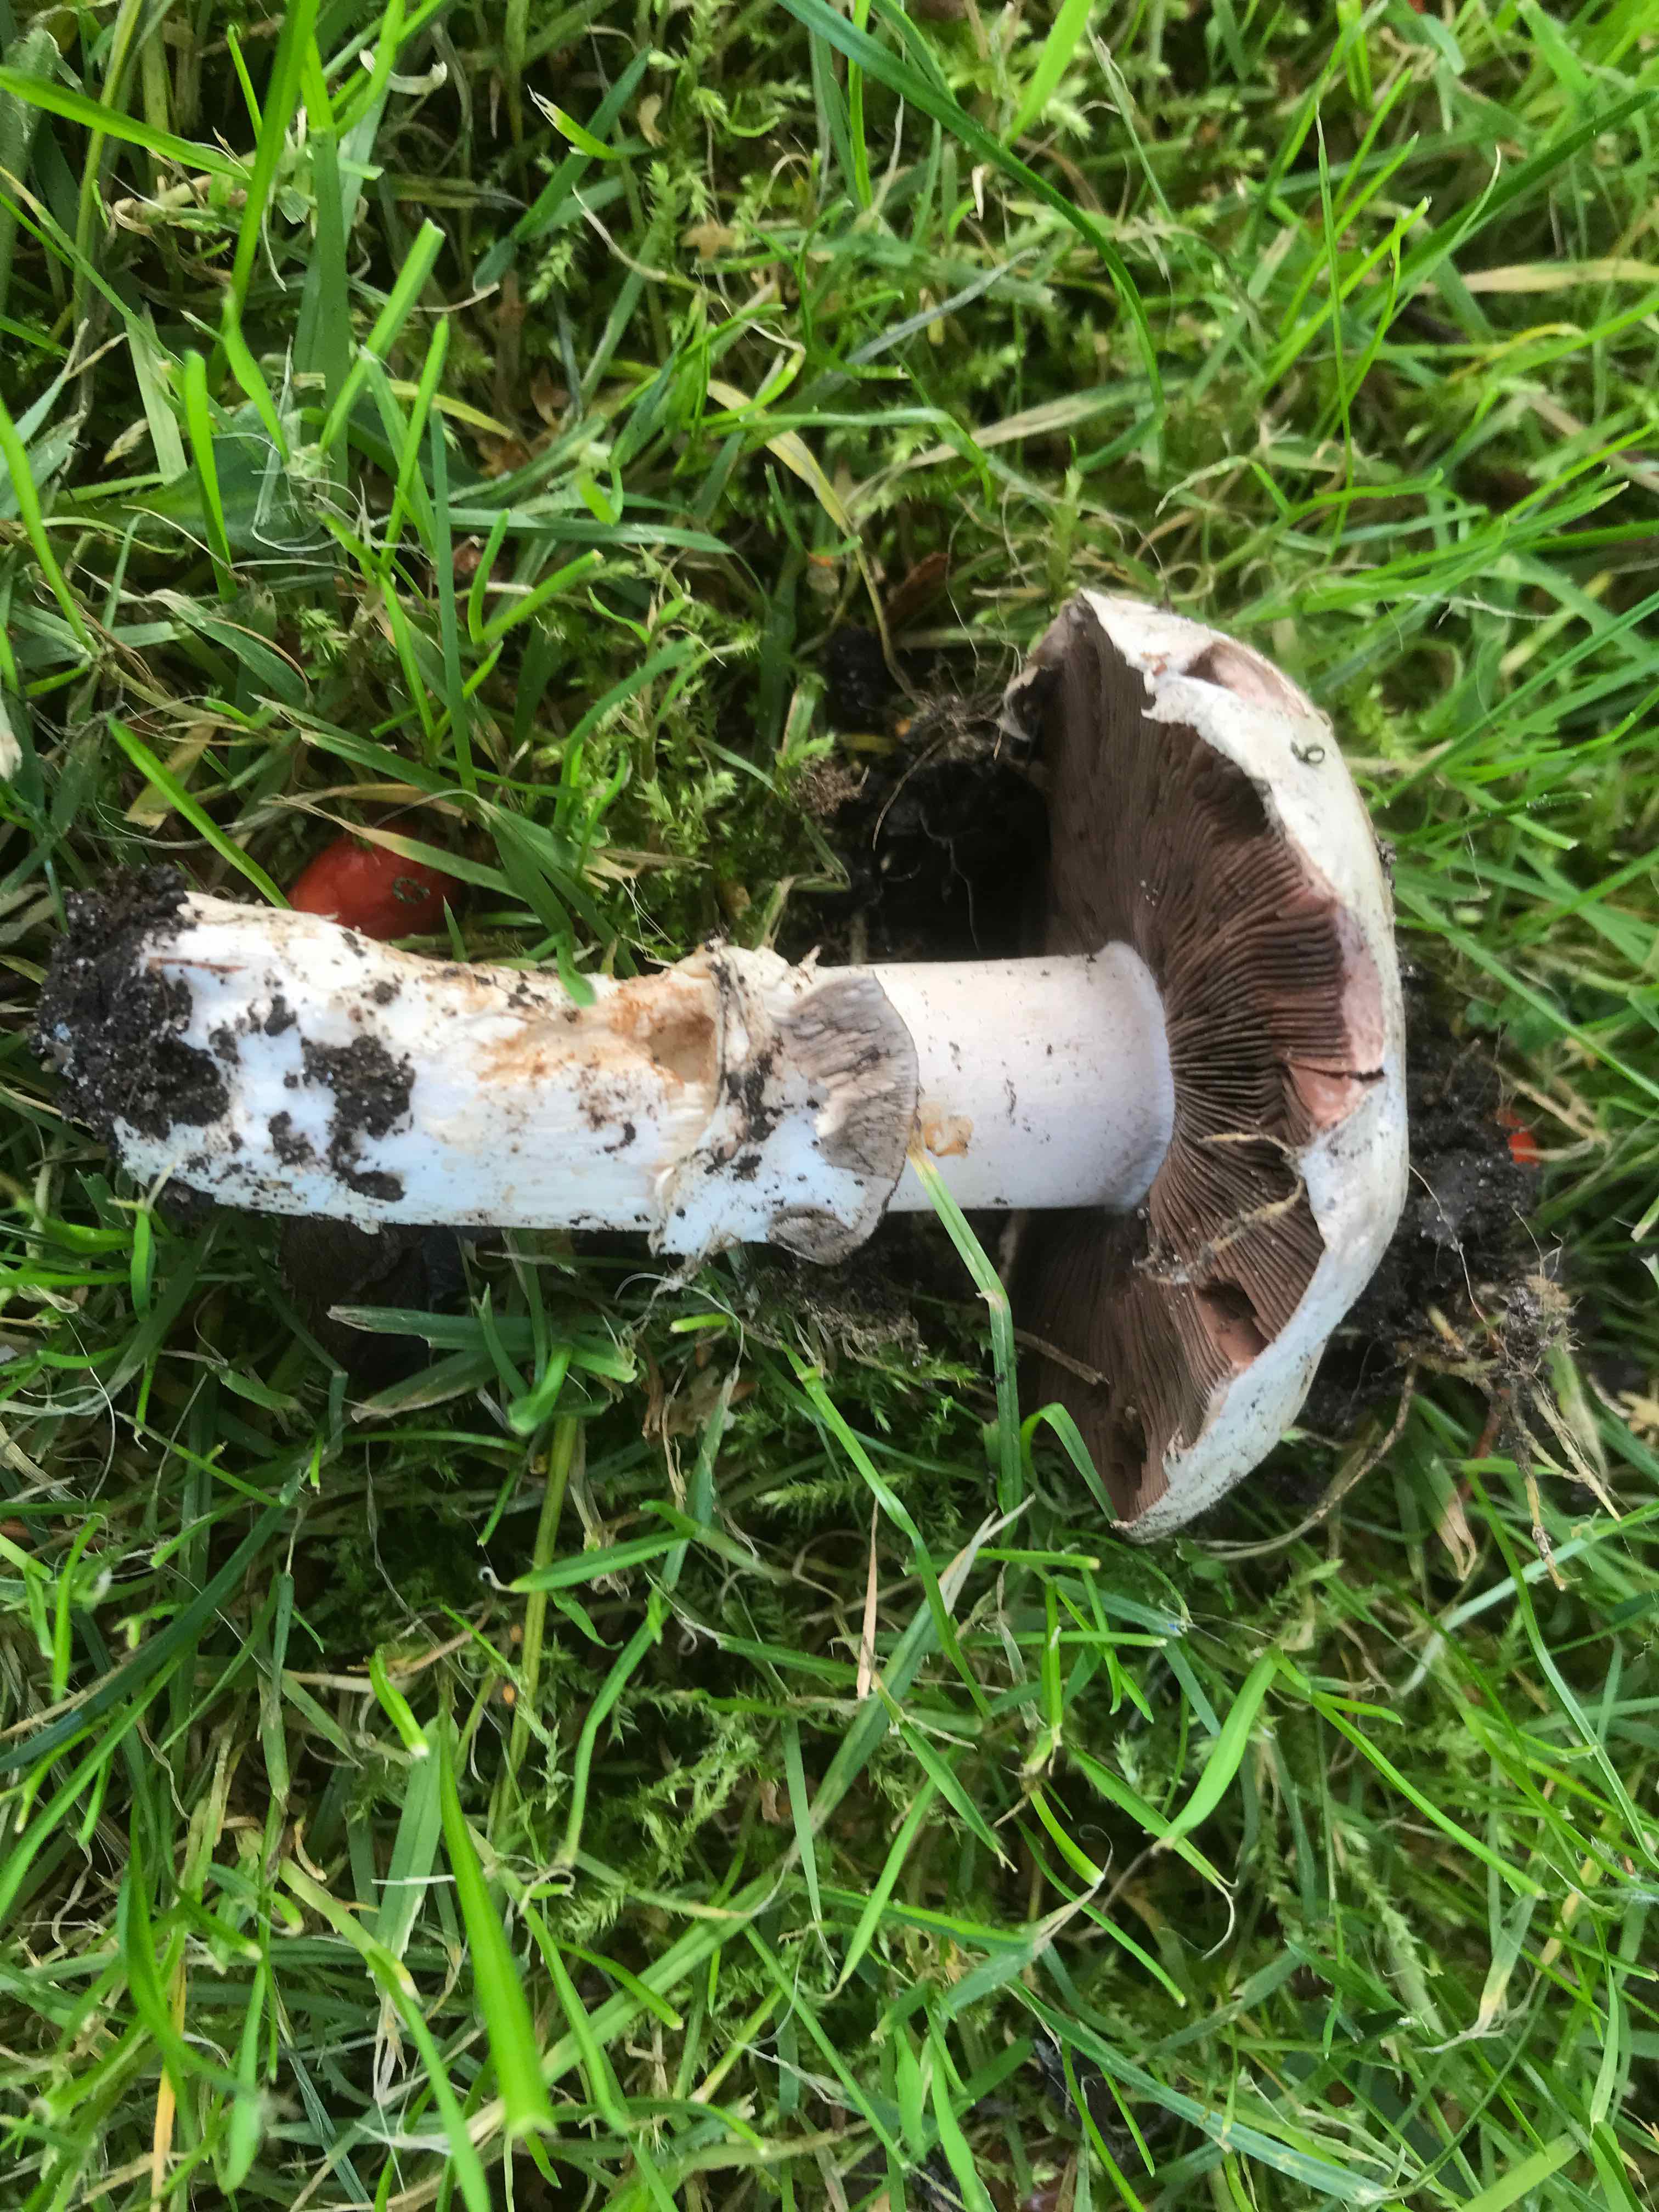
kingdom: Fungi
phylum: Basidiomycota
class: Agaricomycetes
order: Agaricales
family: Agaricaceae
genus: Agaricus
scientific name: Agaricus bitorquis
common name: vej-champignon
